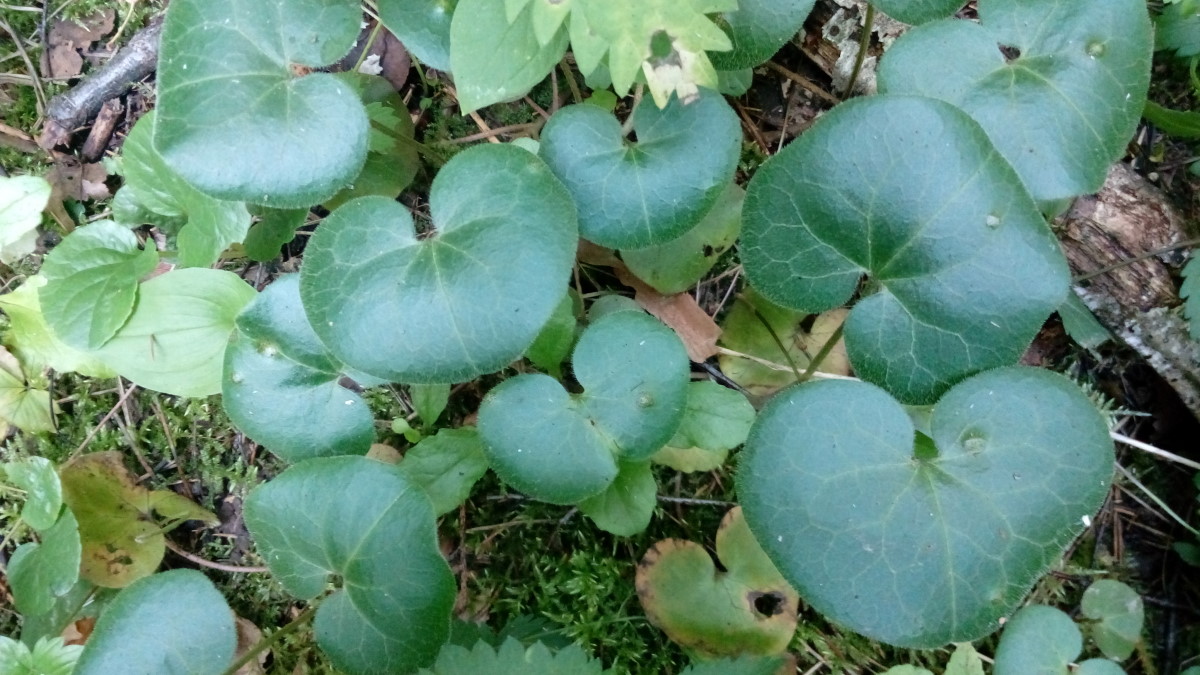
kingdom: Plantae
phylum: Tracheophyta
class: Magnoliopsida
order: Piperales
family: Aristolochiaceae
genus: Asarum
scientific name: Asarum europaeum
